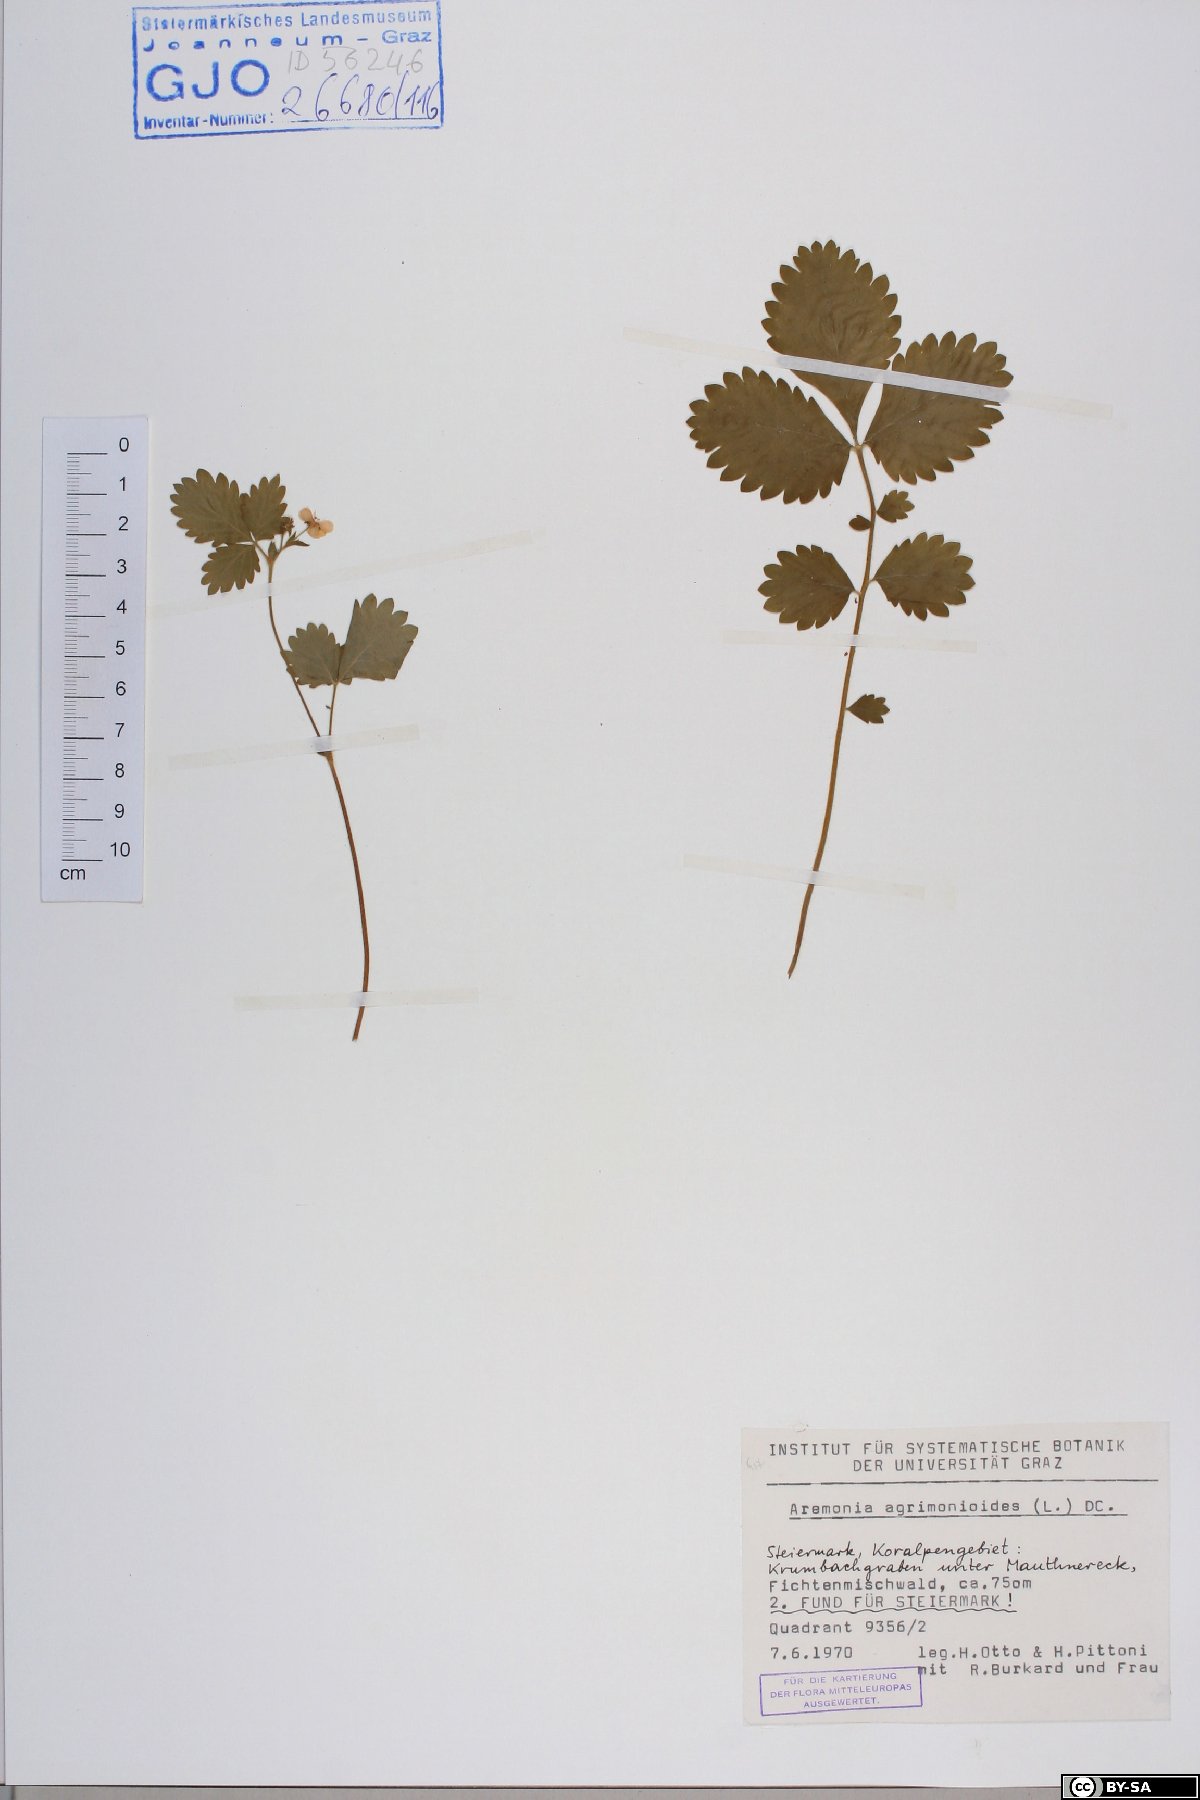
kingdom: Plantae
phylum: Tracheophyta
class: Magnoliopsida
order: Rosales
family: Rosaceae
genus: Aremonia
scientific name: Aremonia agrimonoides
